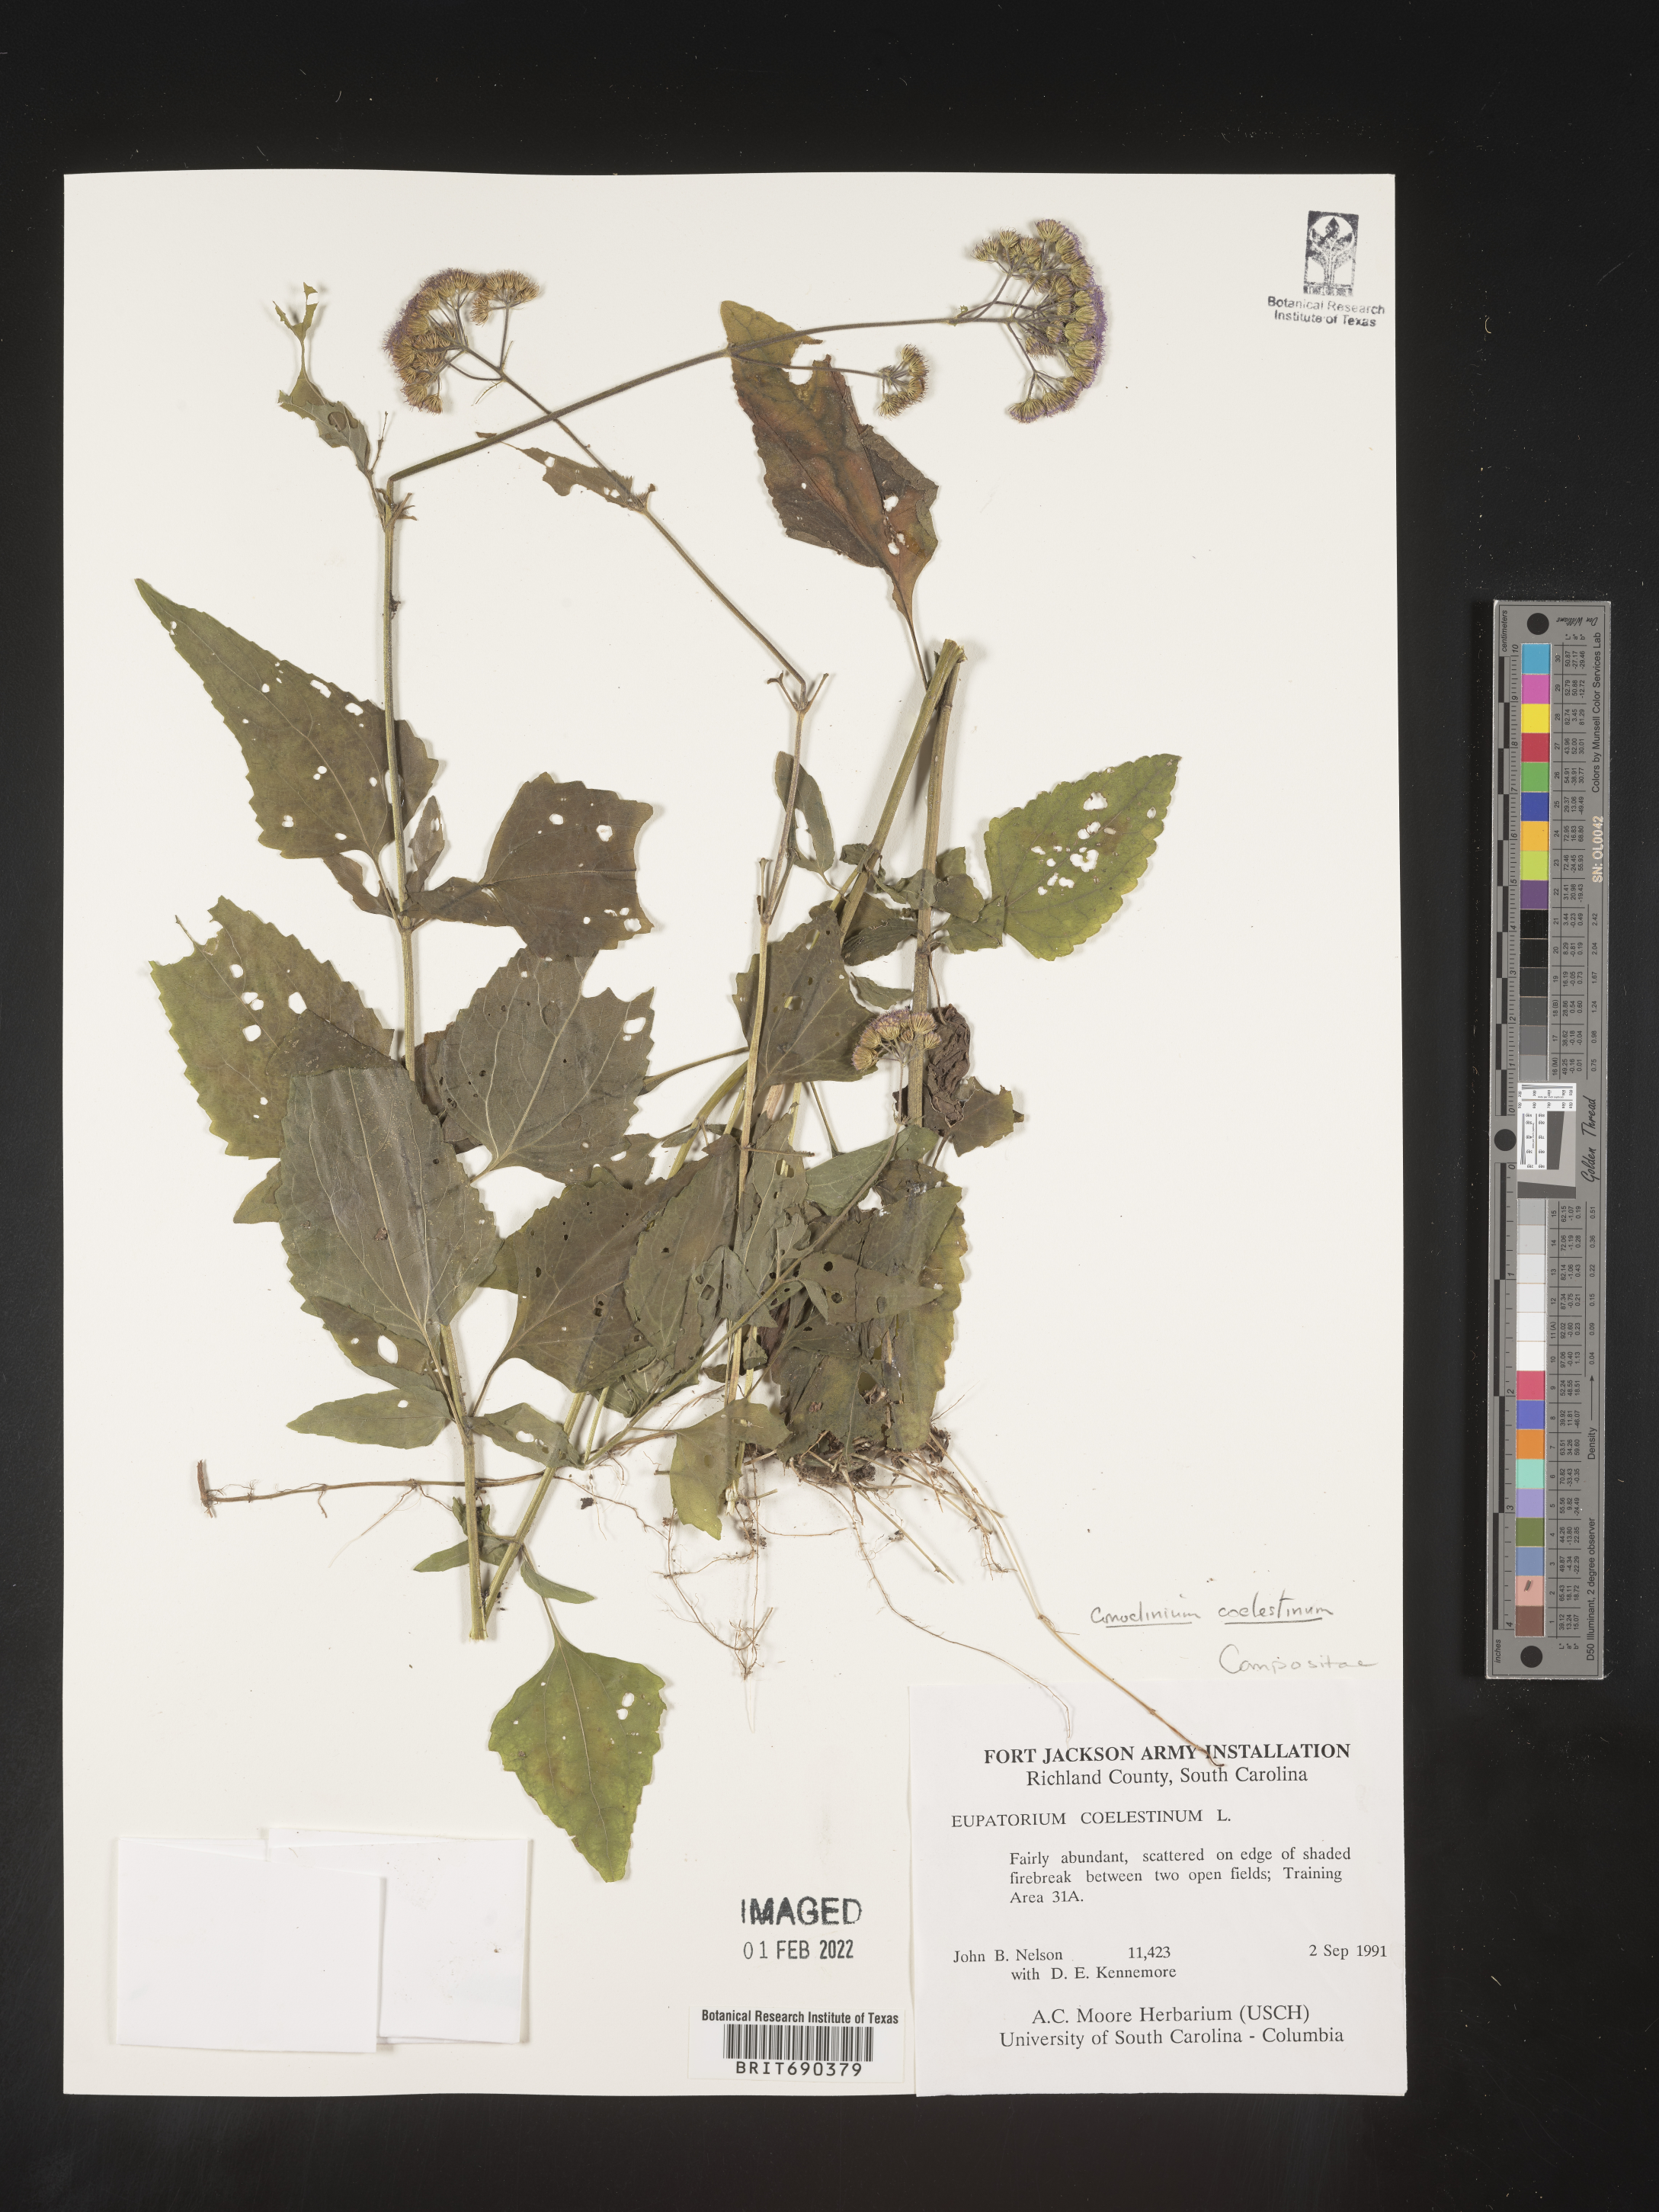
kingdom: Plantae
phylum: Tracheophyta
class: Magnoliopsida
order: Asterales
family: Asteraceae
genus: Conoclinium
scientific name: Conoclinium coelestinum
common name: Blue mistflower
